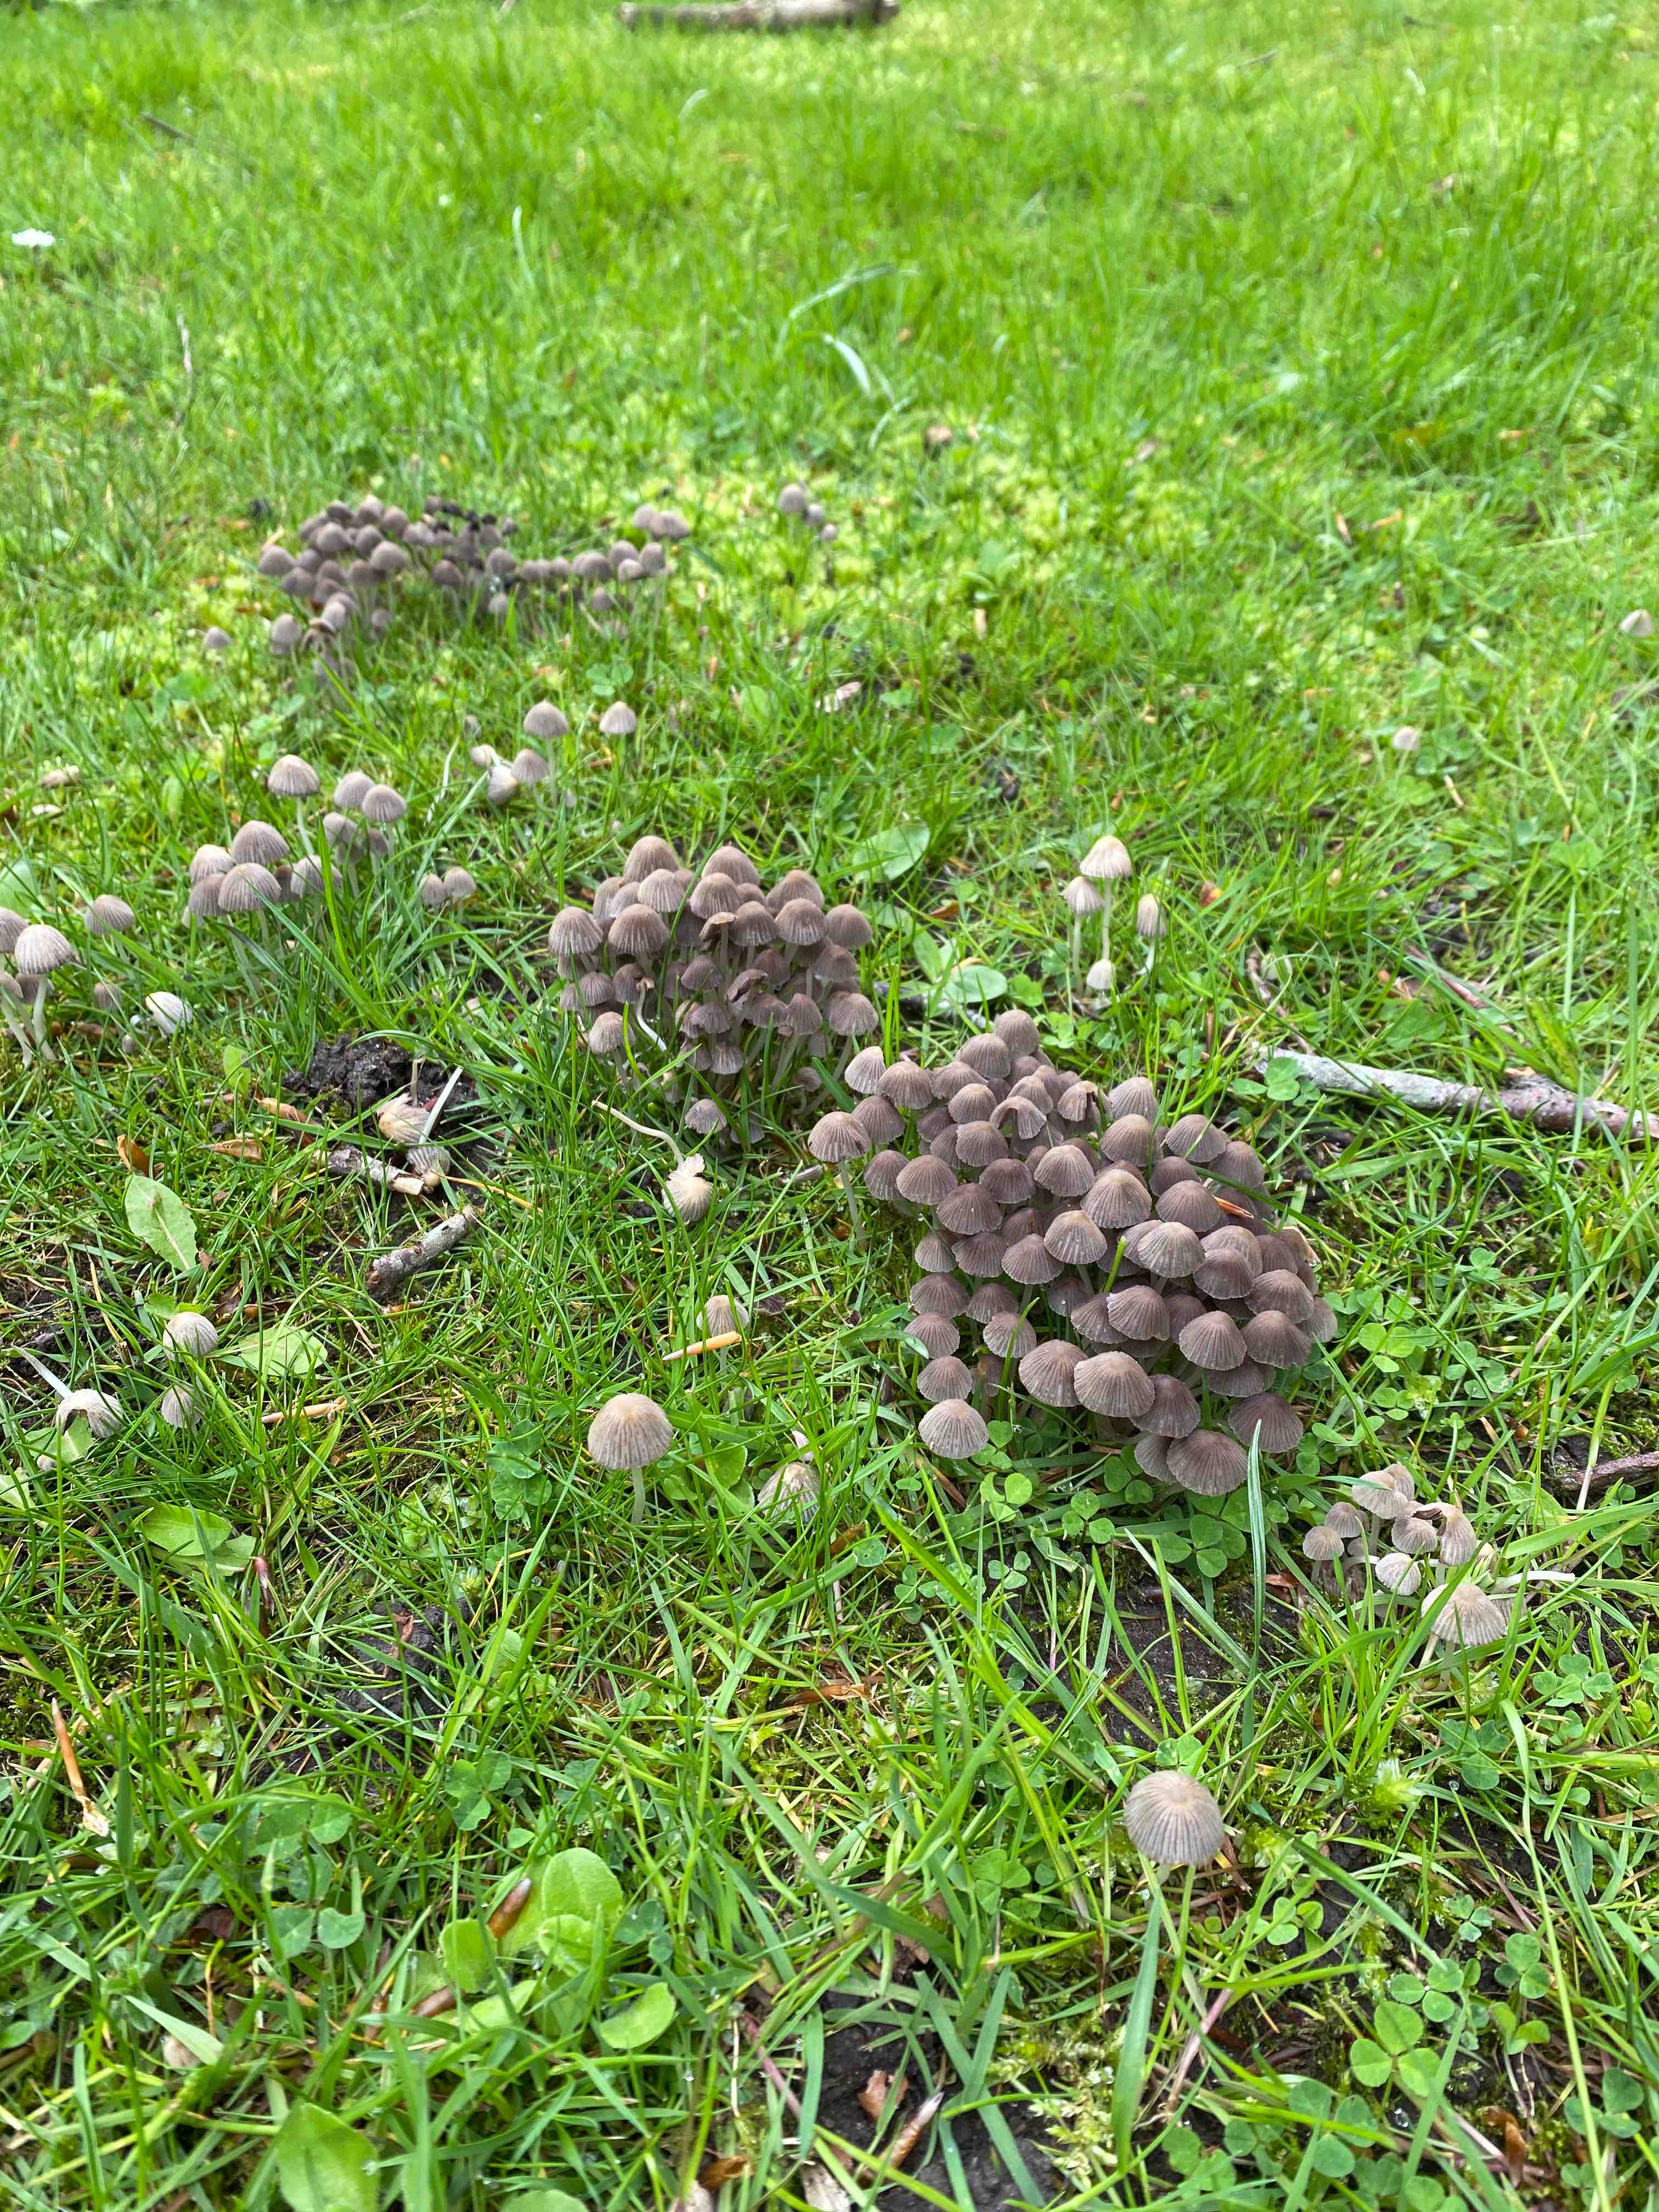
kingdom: Fungi
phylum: Basidiomycota
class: Agaricomycetes
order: Agaricales
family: Psathyrellaceae
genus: Coprinellus
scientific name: Coprinellus disseminatus
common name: bredsået blækhat
